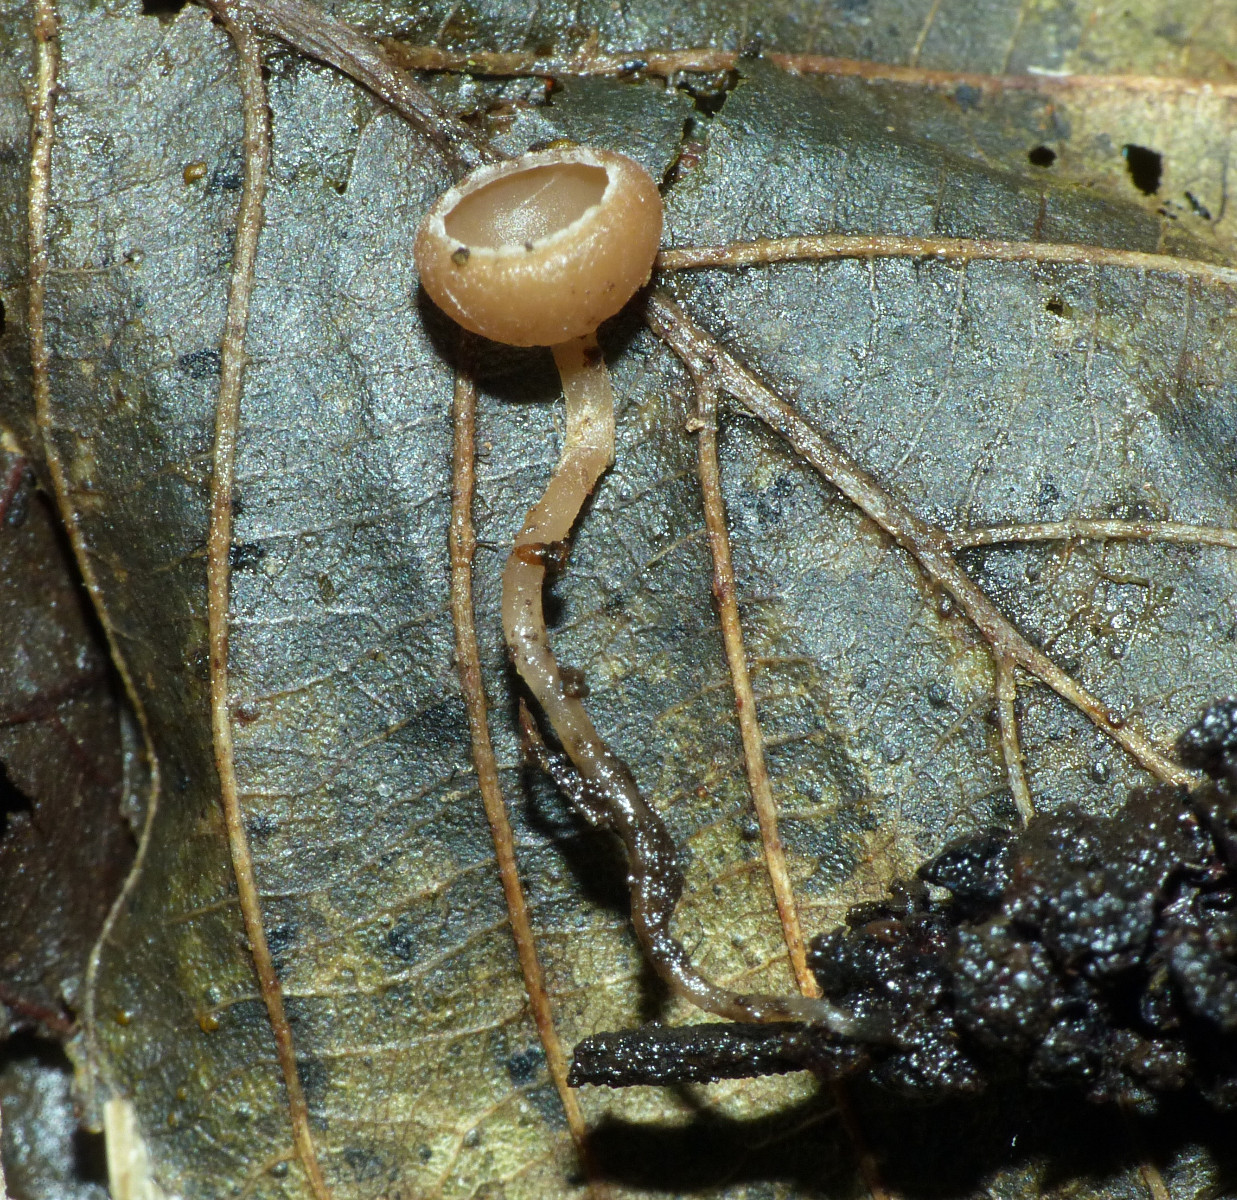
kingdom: Fungi
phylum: Ascomycota
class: Leotiomycetes
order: Helotiales
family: Sclerotiniaceae
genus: Ciboria
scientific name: Ciboria amentacea
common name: ellerakle-knoldskive
